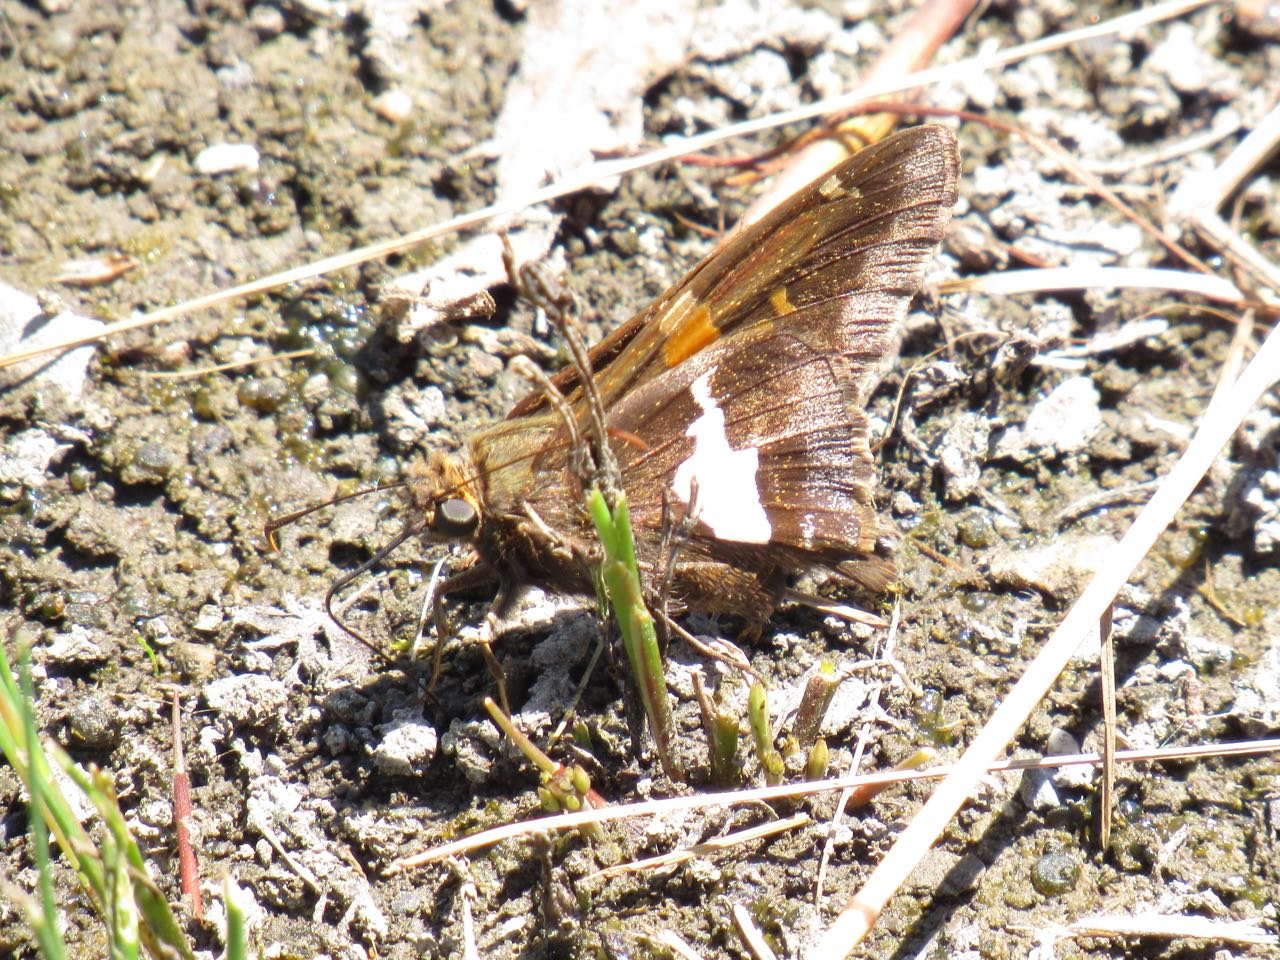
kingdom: Animalia
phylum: Arthropoda
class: Insecta
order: Lepidoptera
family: Hesperiidae
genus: Epargyreus
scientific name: Epargyreus clarus
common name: Silver-spotted Skipper
